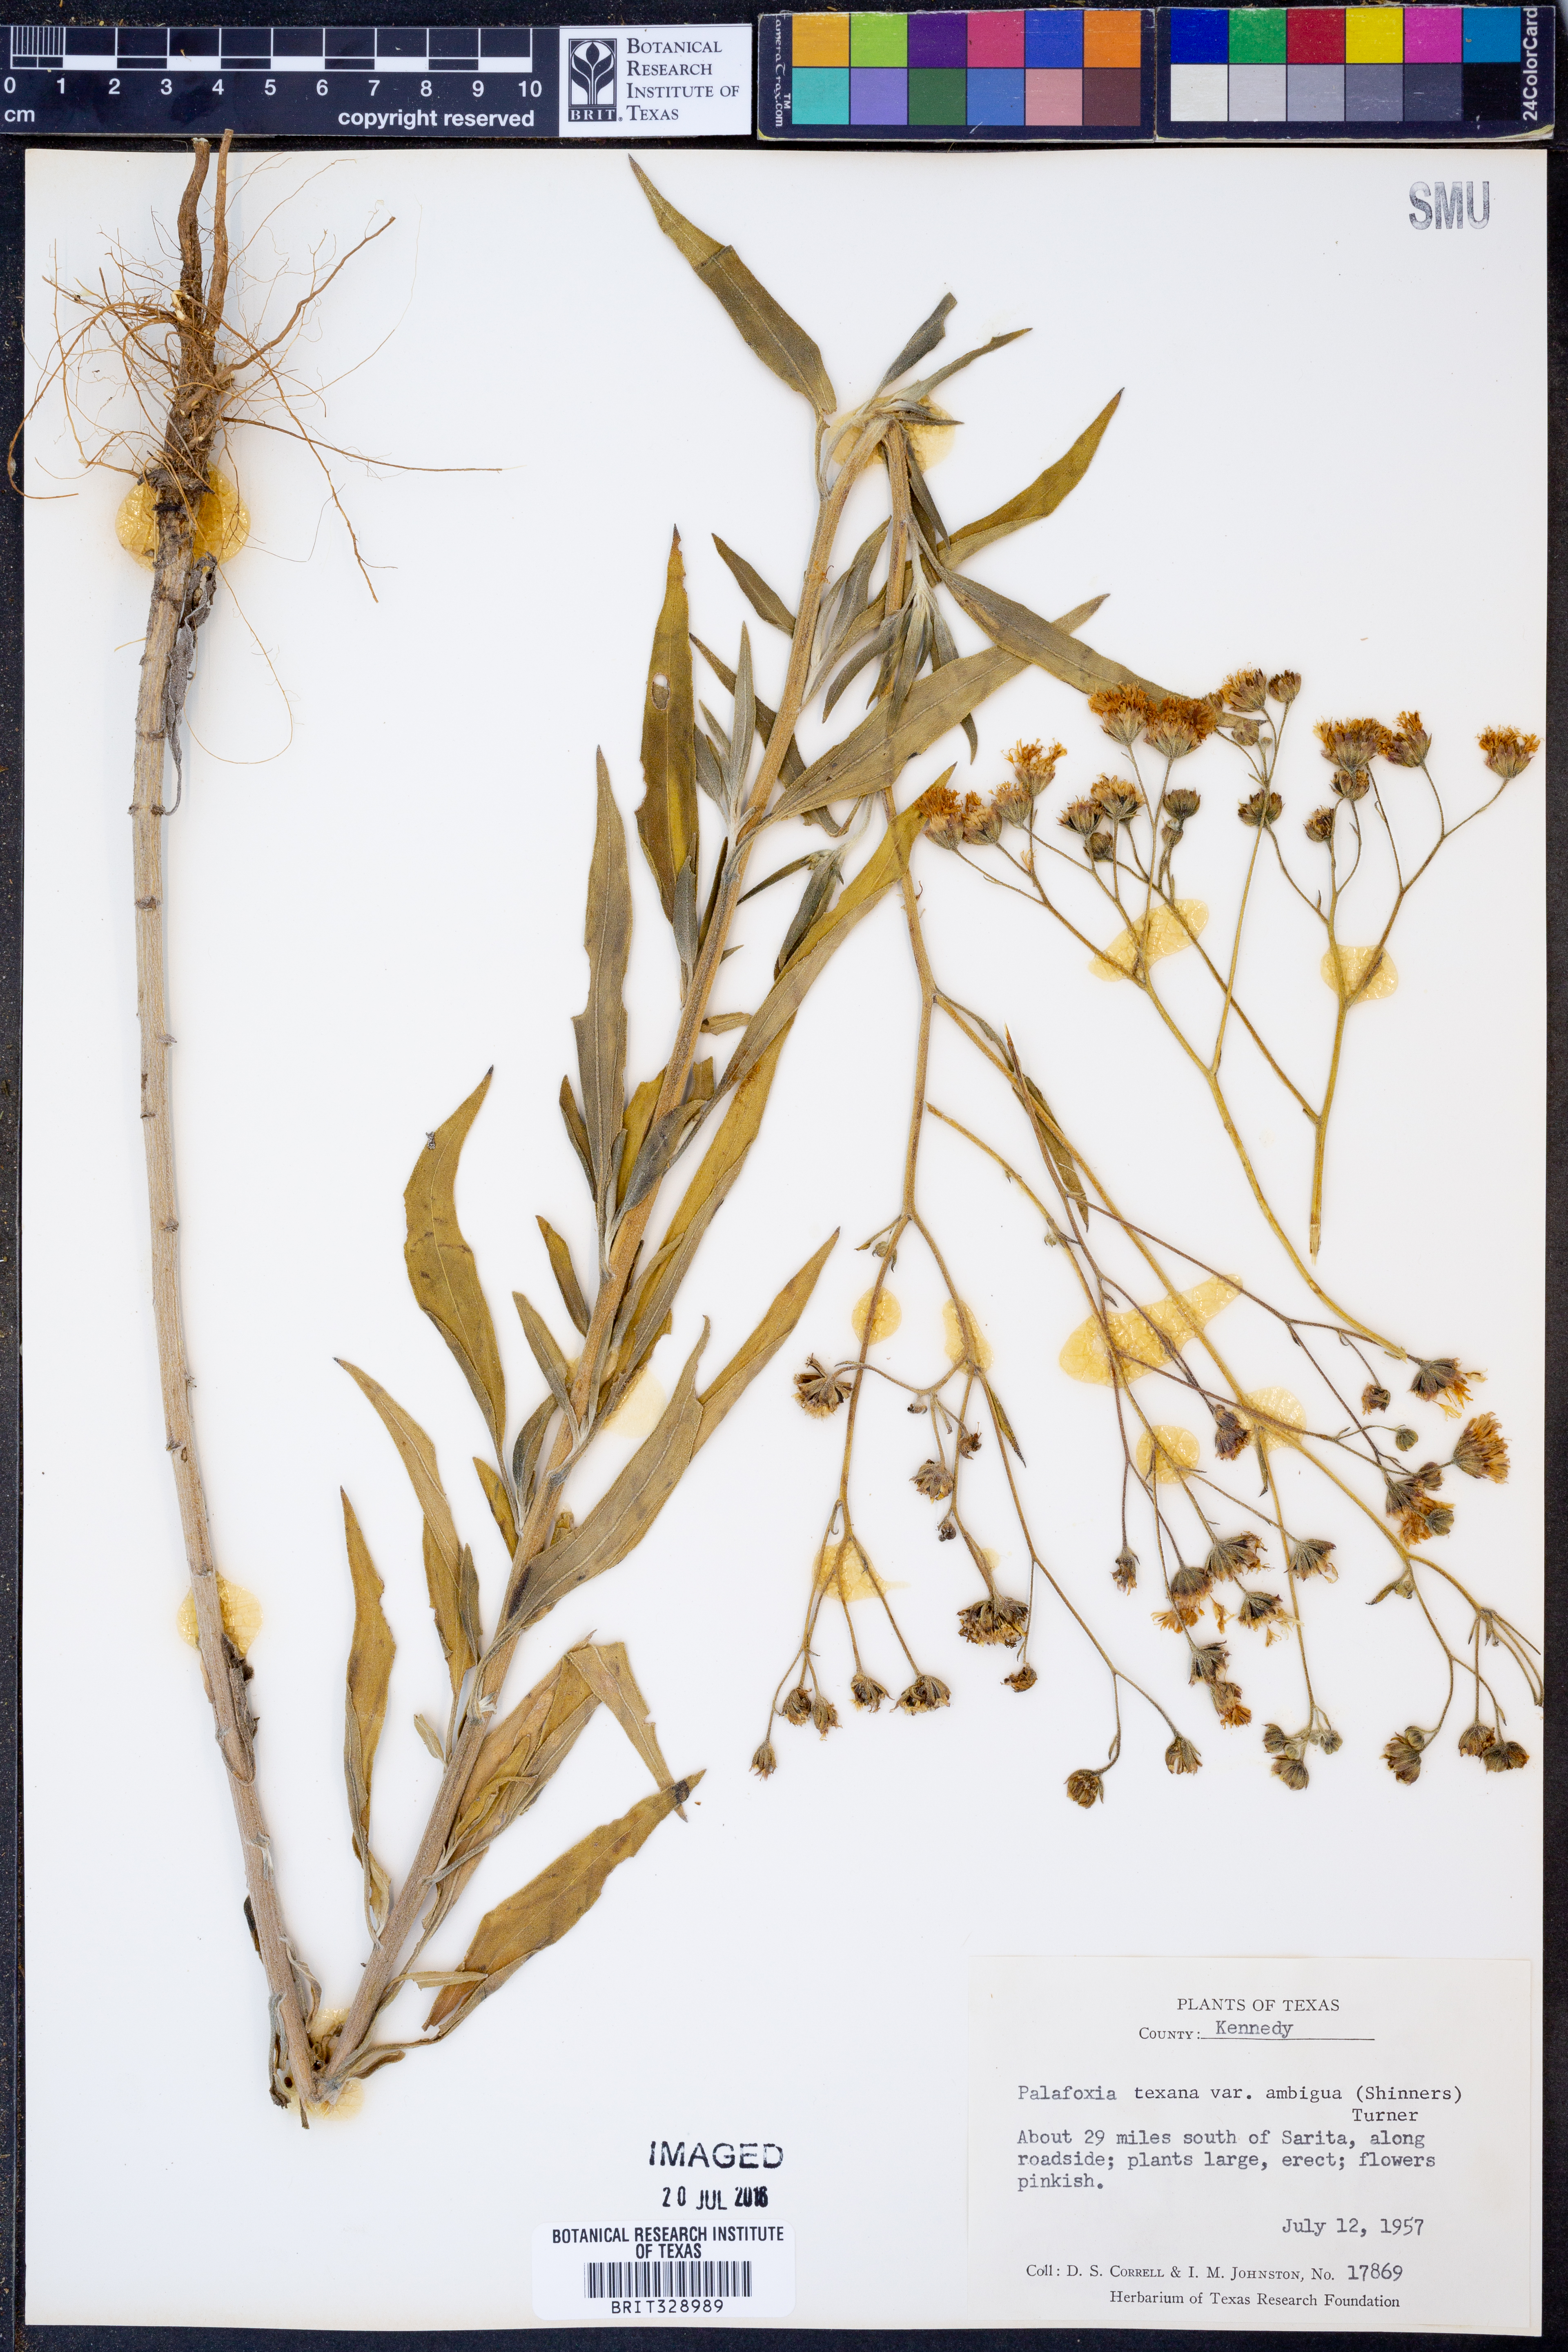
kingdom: Plantae
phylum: Tracheophyta
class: Magnoliopsida
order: Asterales
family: Asteraceae
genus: Palafoxia
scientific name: Palafoxia texana
